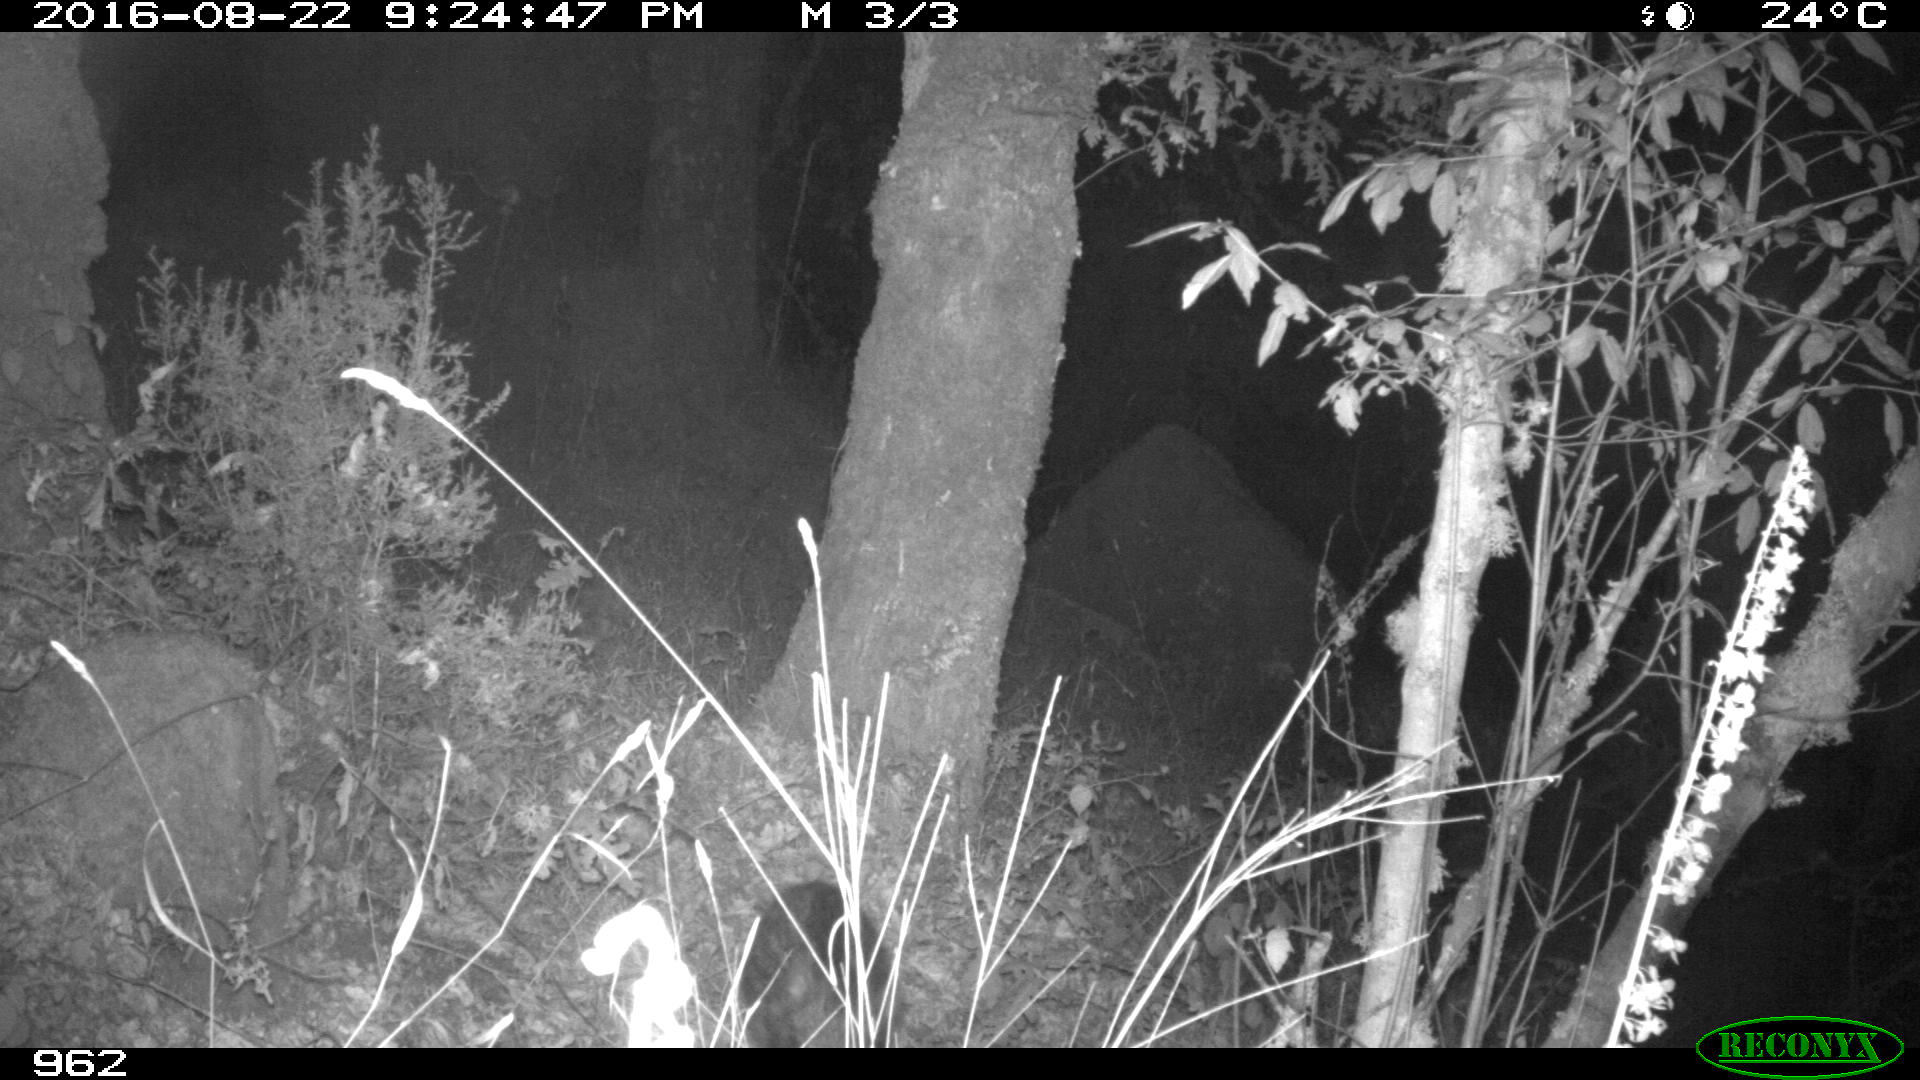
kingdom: Animalia
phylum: Chordata
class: Mammalia
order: Artiodactyla
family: Suidae
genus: Sus
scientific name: Sus scrofa
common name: Wild boar
